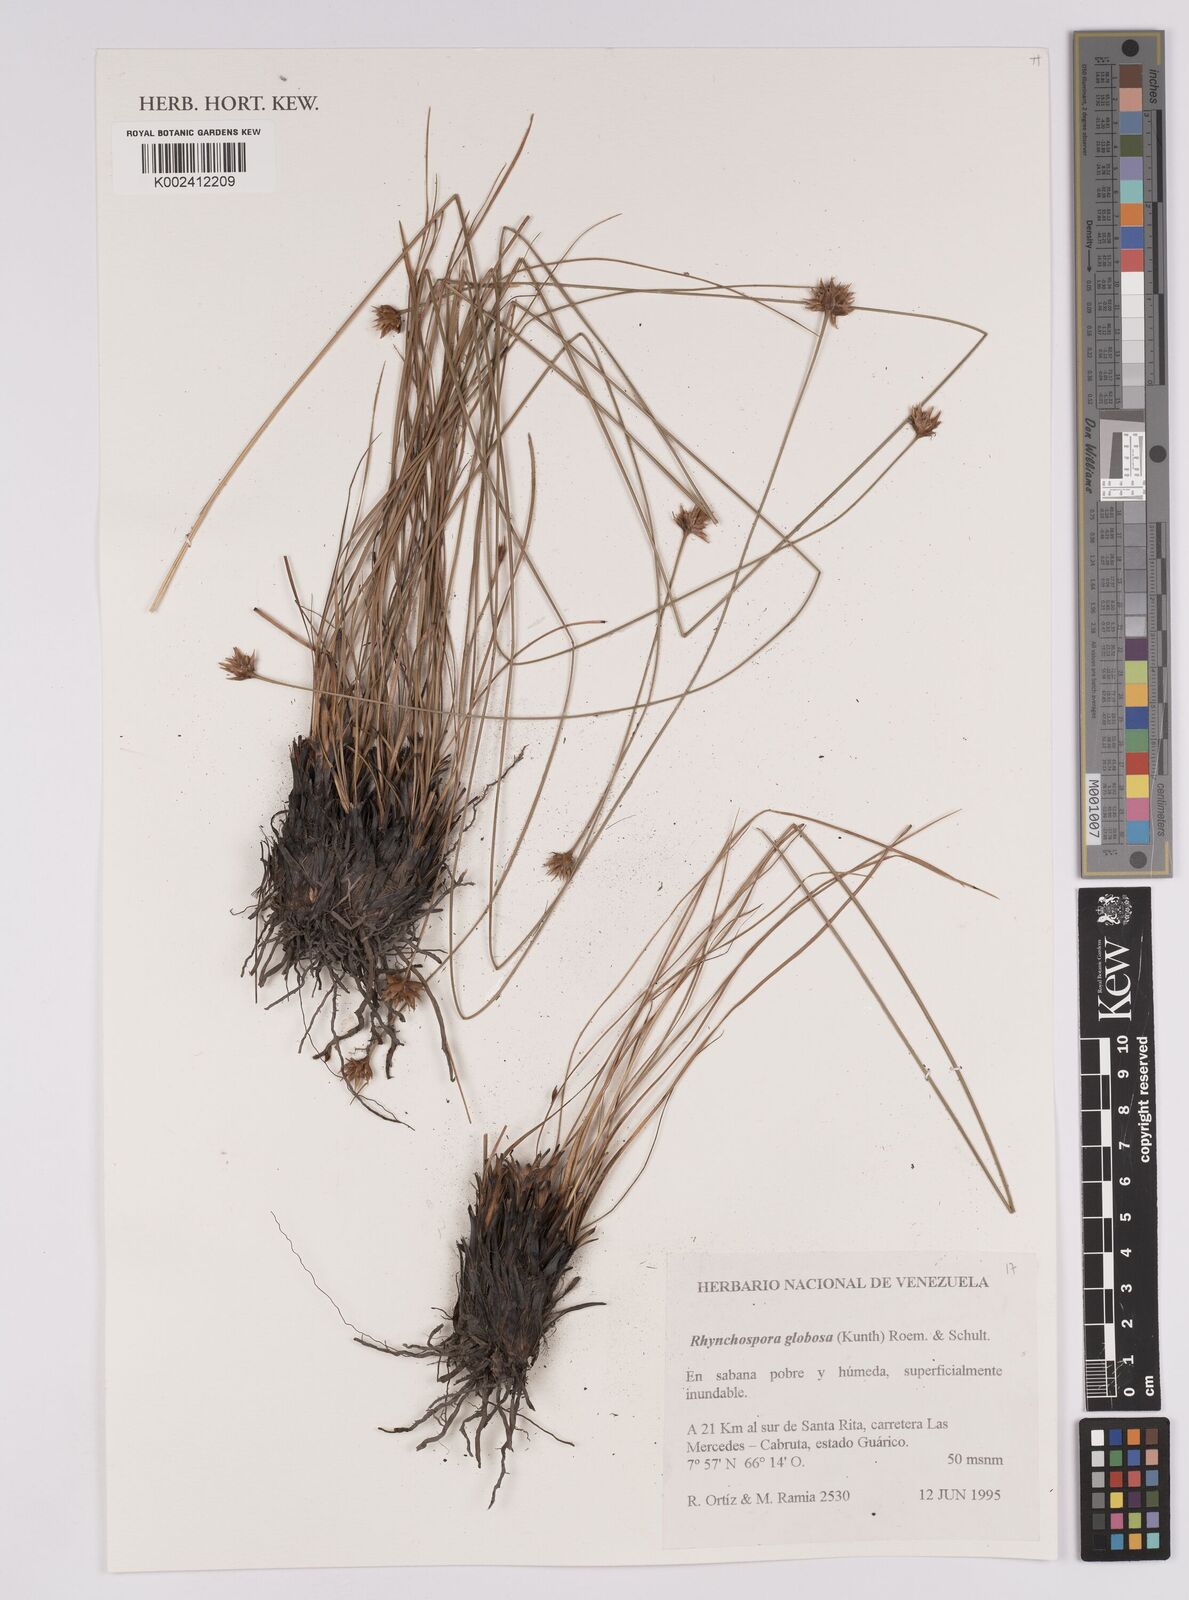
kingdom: Plantae
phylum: Tracheophyta
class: Liliopsida
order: Poales
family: Cyperaceae
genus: Rhynchospora
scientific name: Rhynchospora globosa
